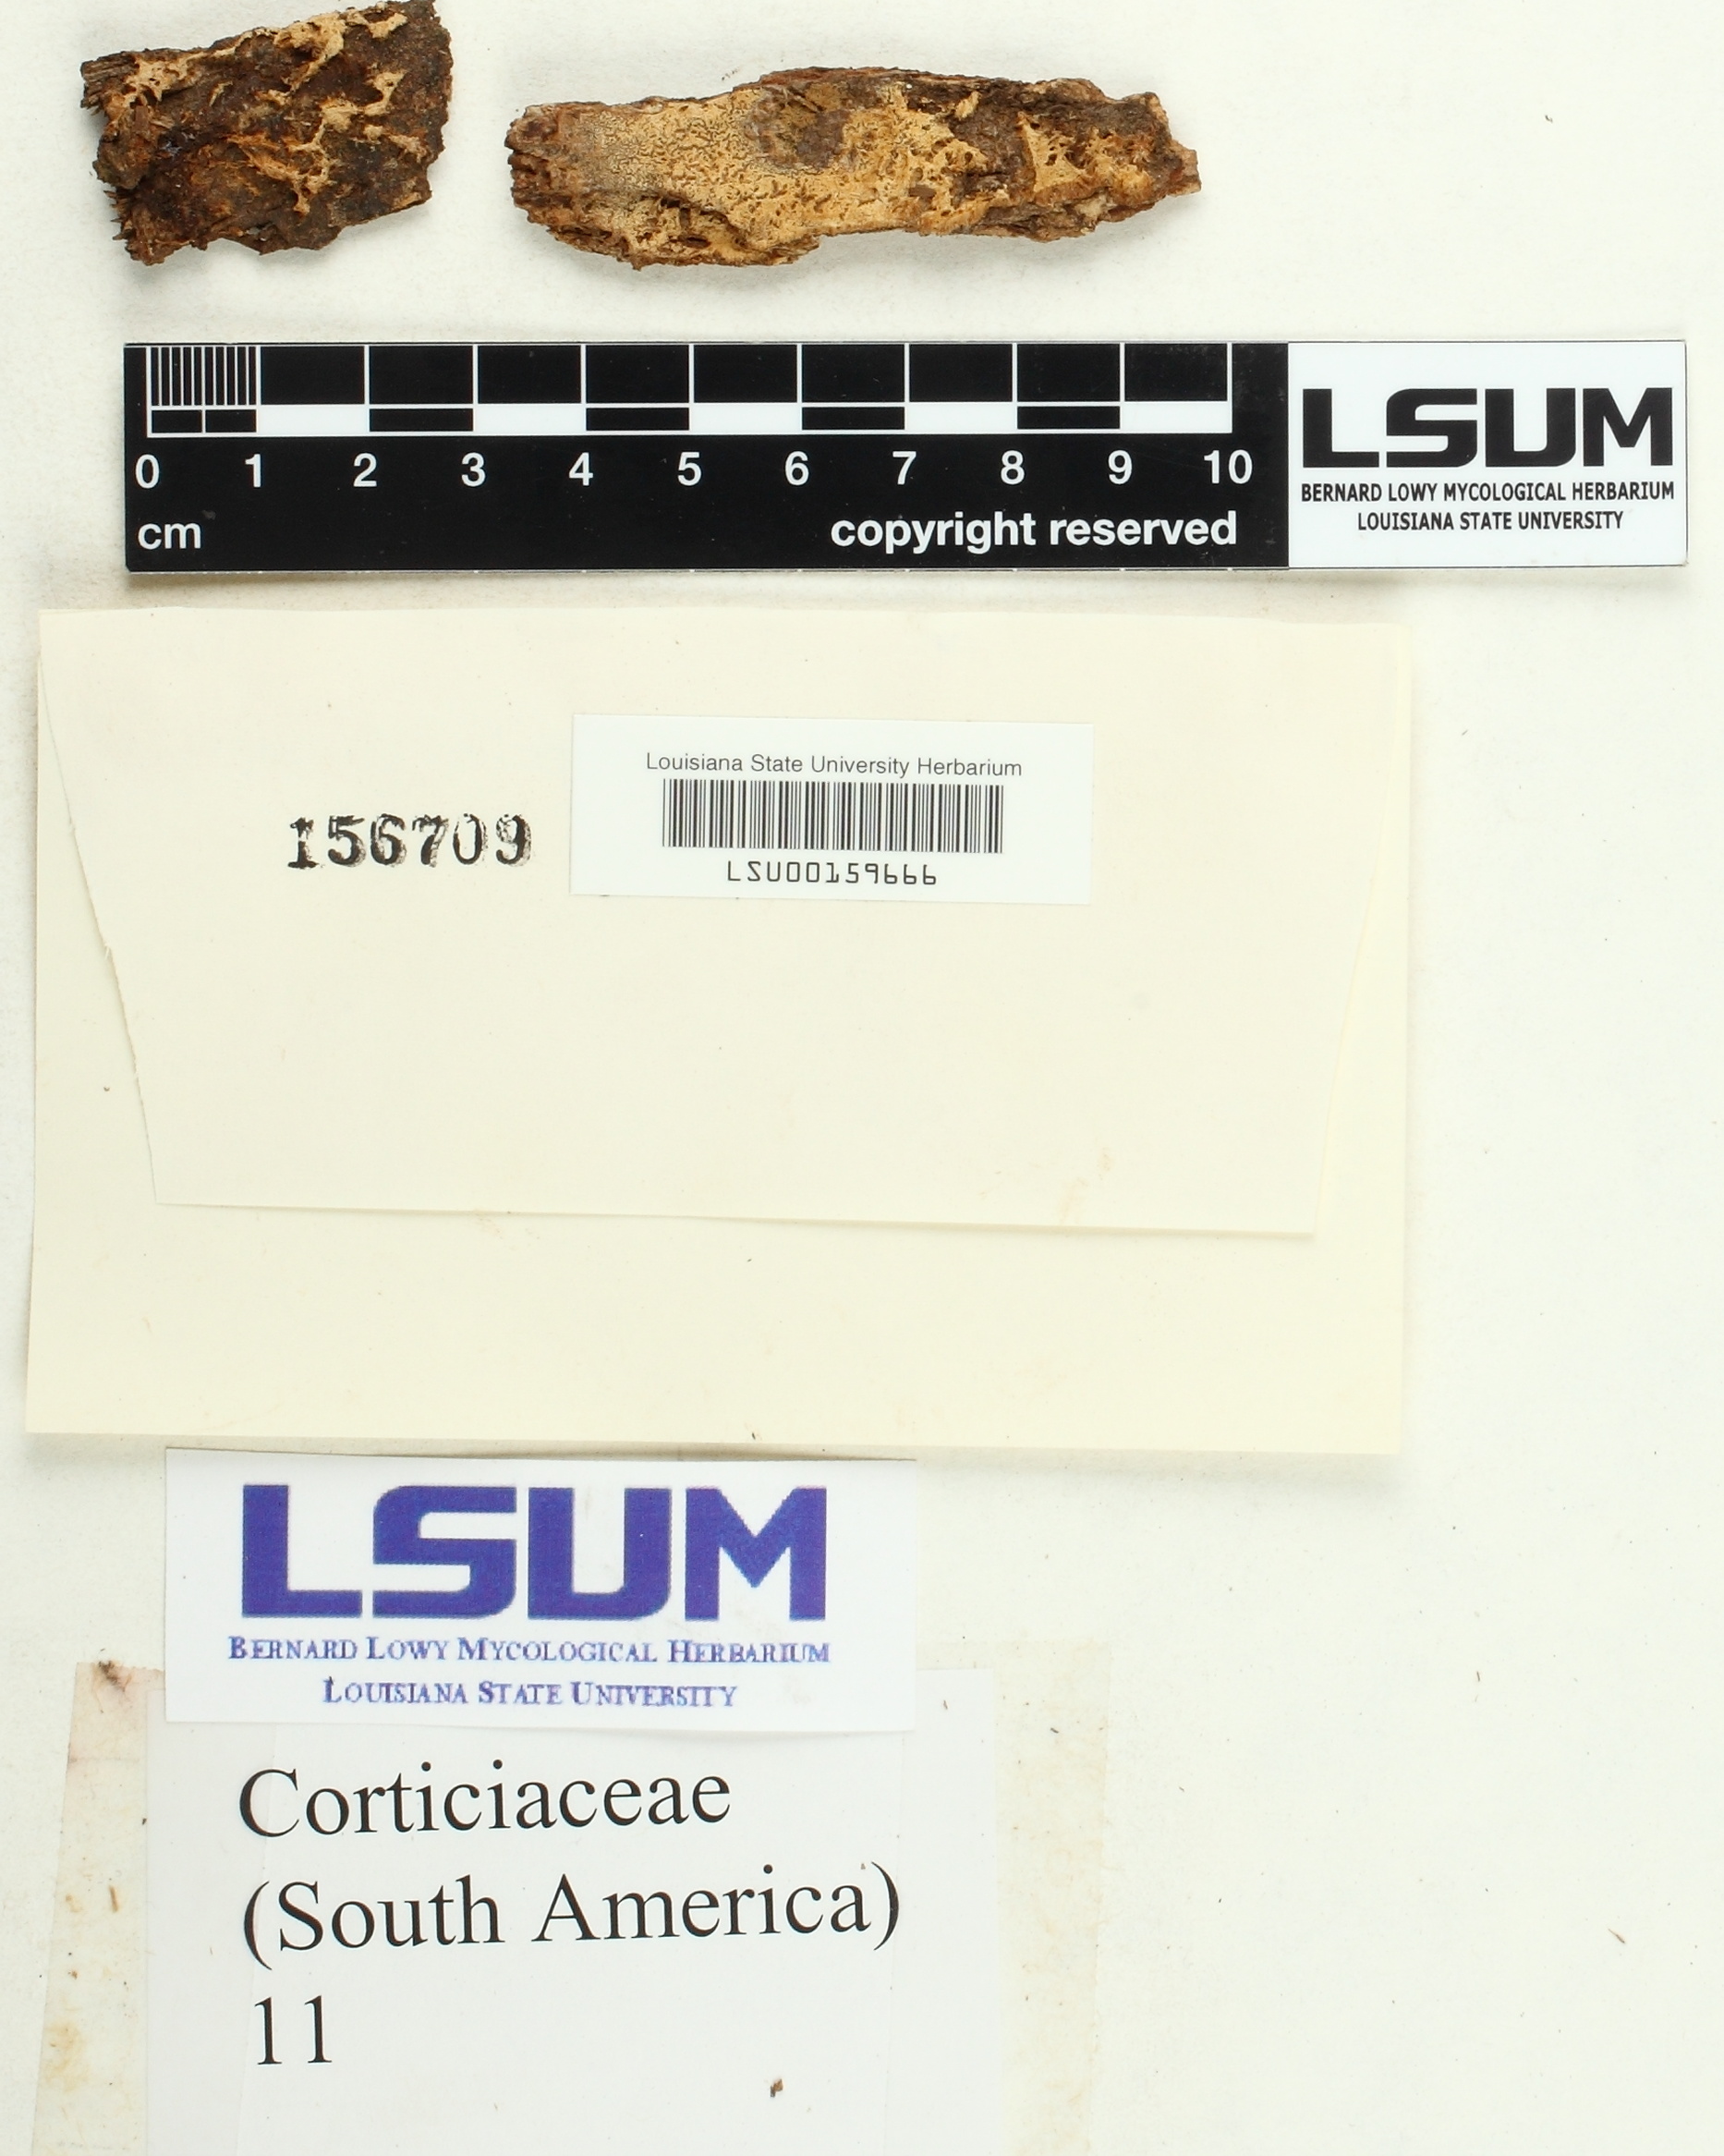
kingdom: Fungi
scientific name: Fungi
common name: Fungi
